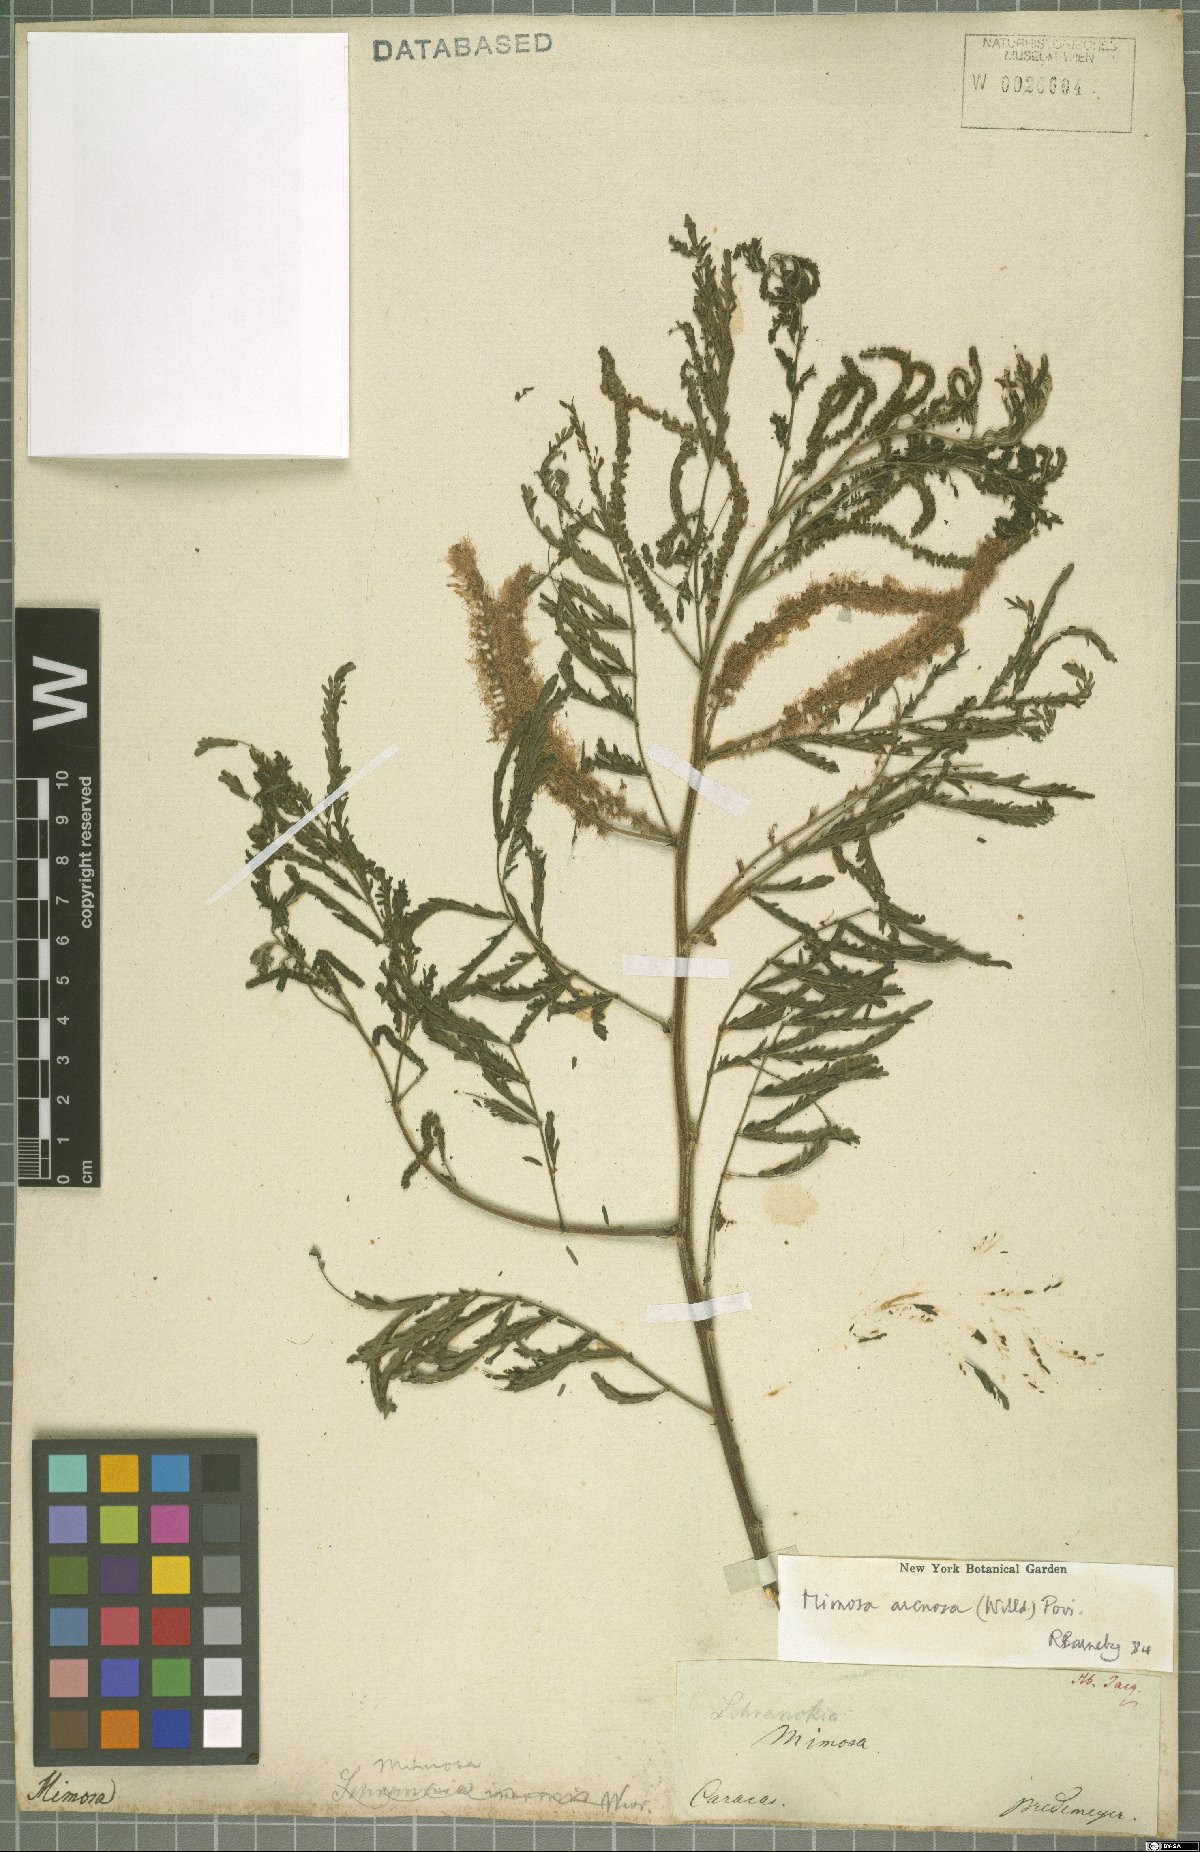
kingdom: Plantae
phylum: Tracheophyta
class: Magnoliopsida
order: Fabales
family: Fabaceae
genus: Mimosa
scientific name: Mimosa arenosa
